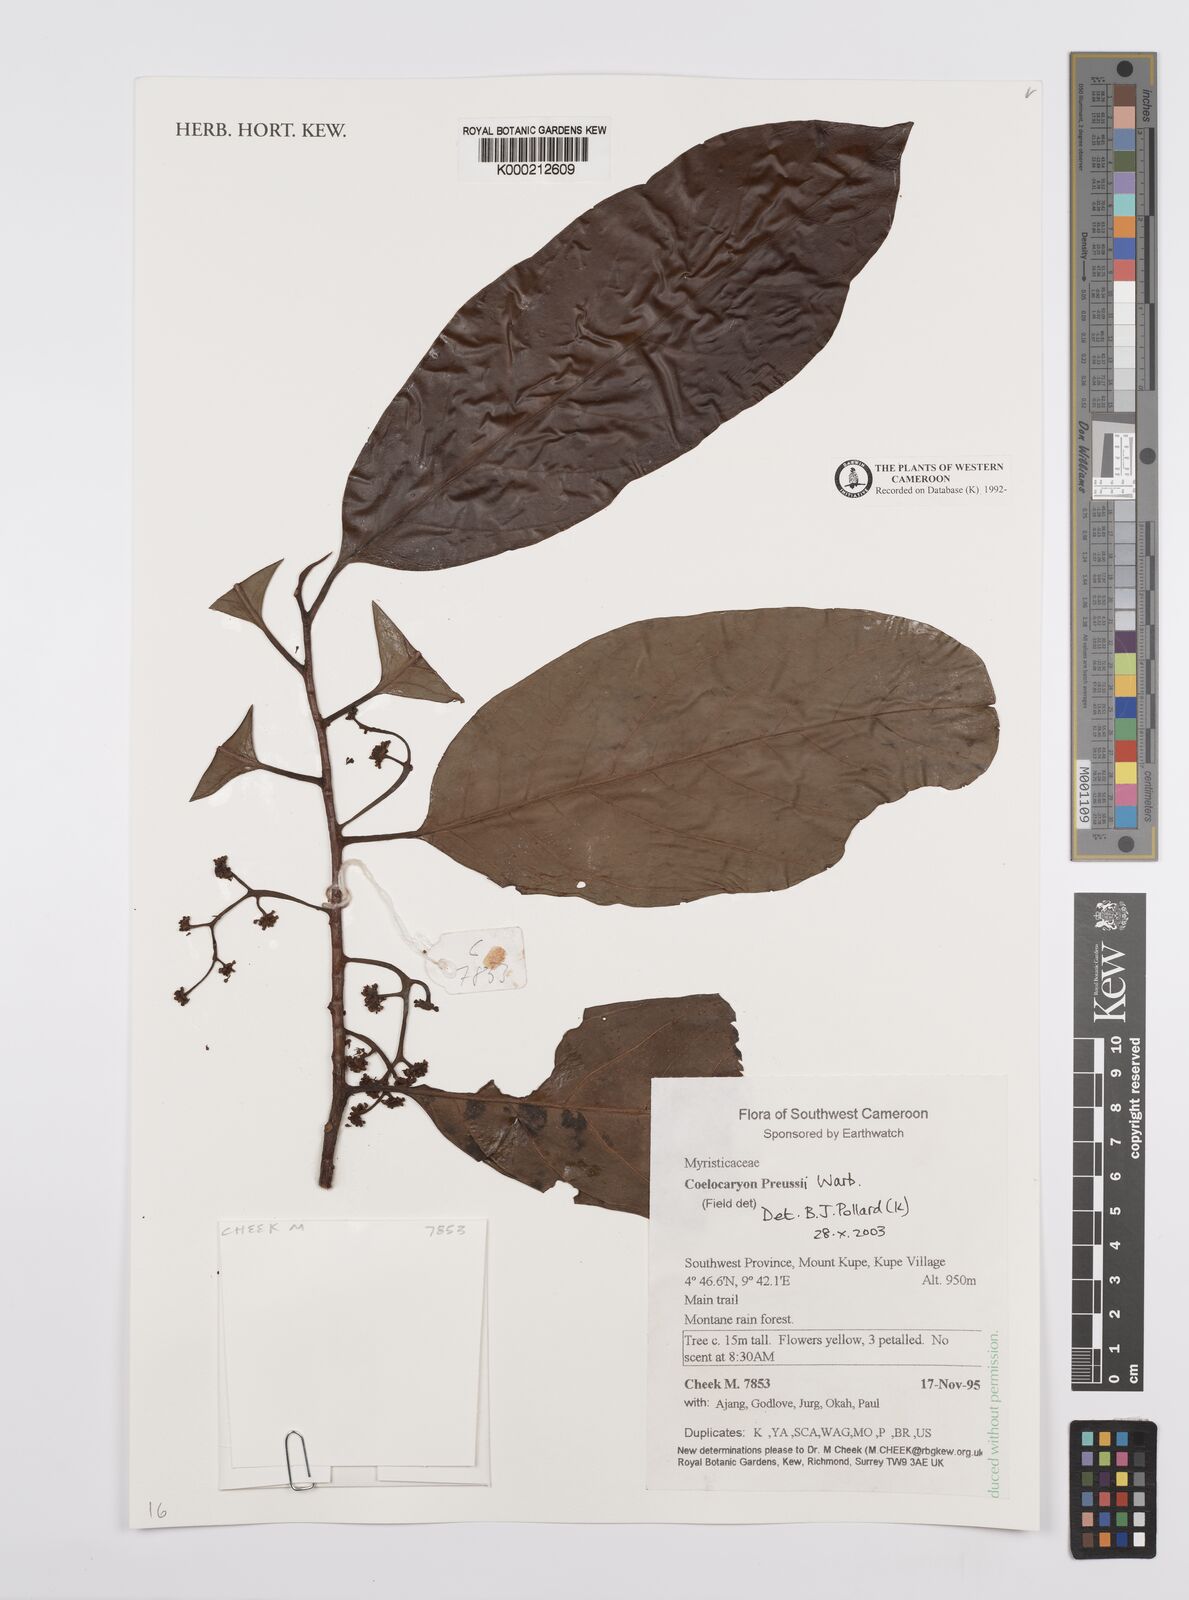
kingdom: Plantae
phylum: Tracheophyta
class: Magnoliopsida
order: Magnoliales
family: Myristicaceae
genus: Coelocaryon
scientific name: Coelocaryon preussii
